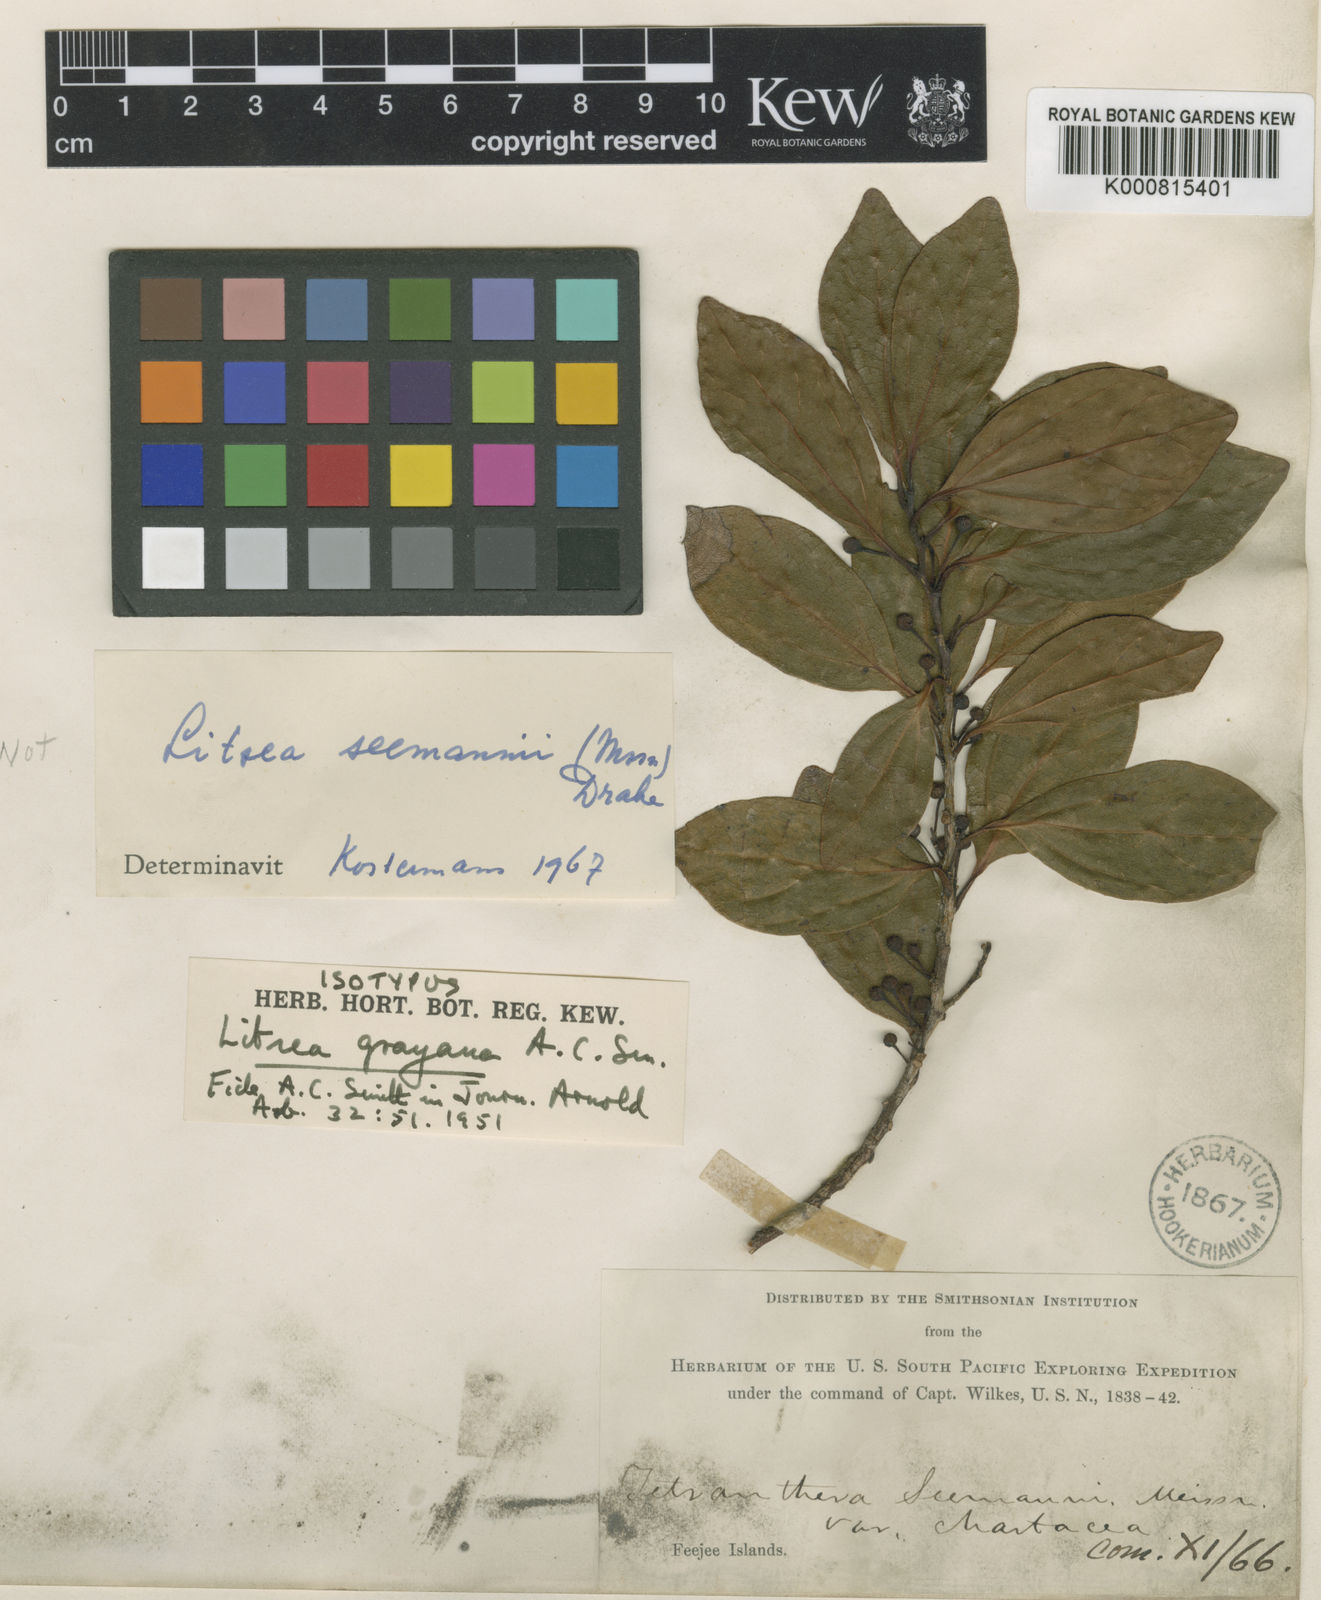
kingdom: Plantae
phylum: Tracheophyta
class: Magnoliopsida
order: Laurales
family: Lauraceae
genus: Litsea
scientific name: Litsea grayana
